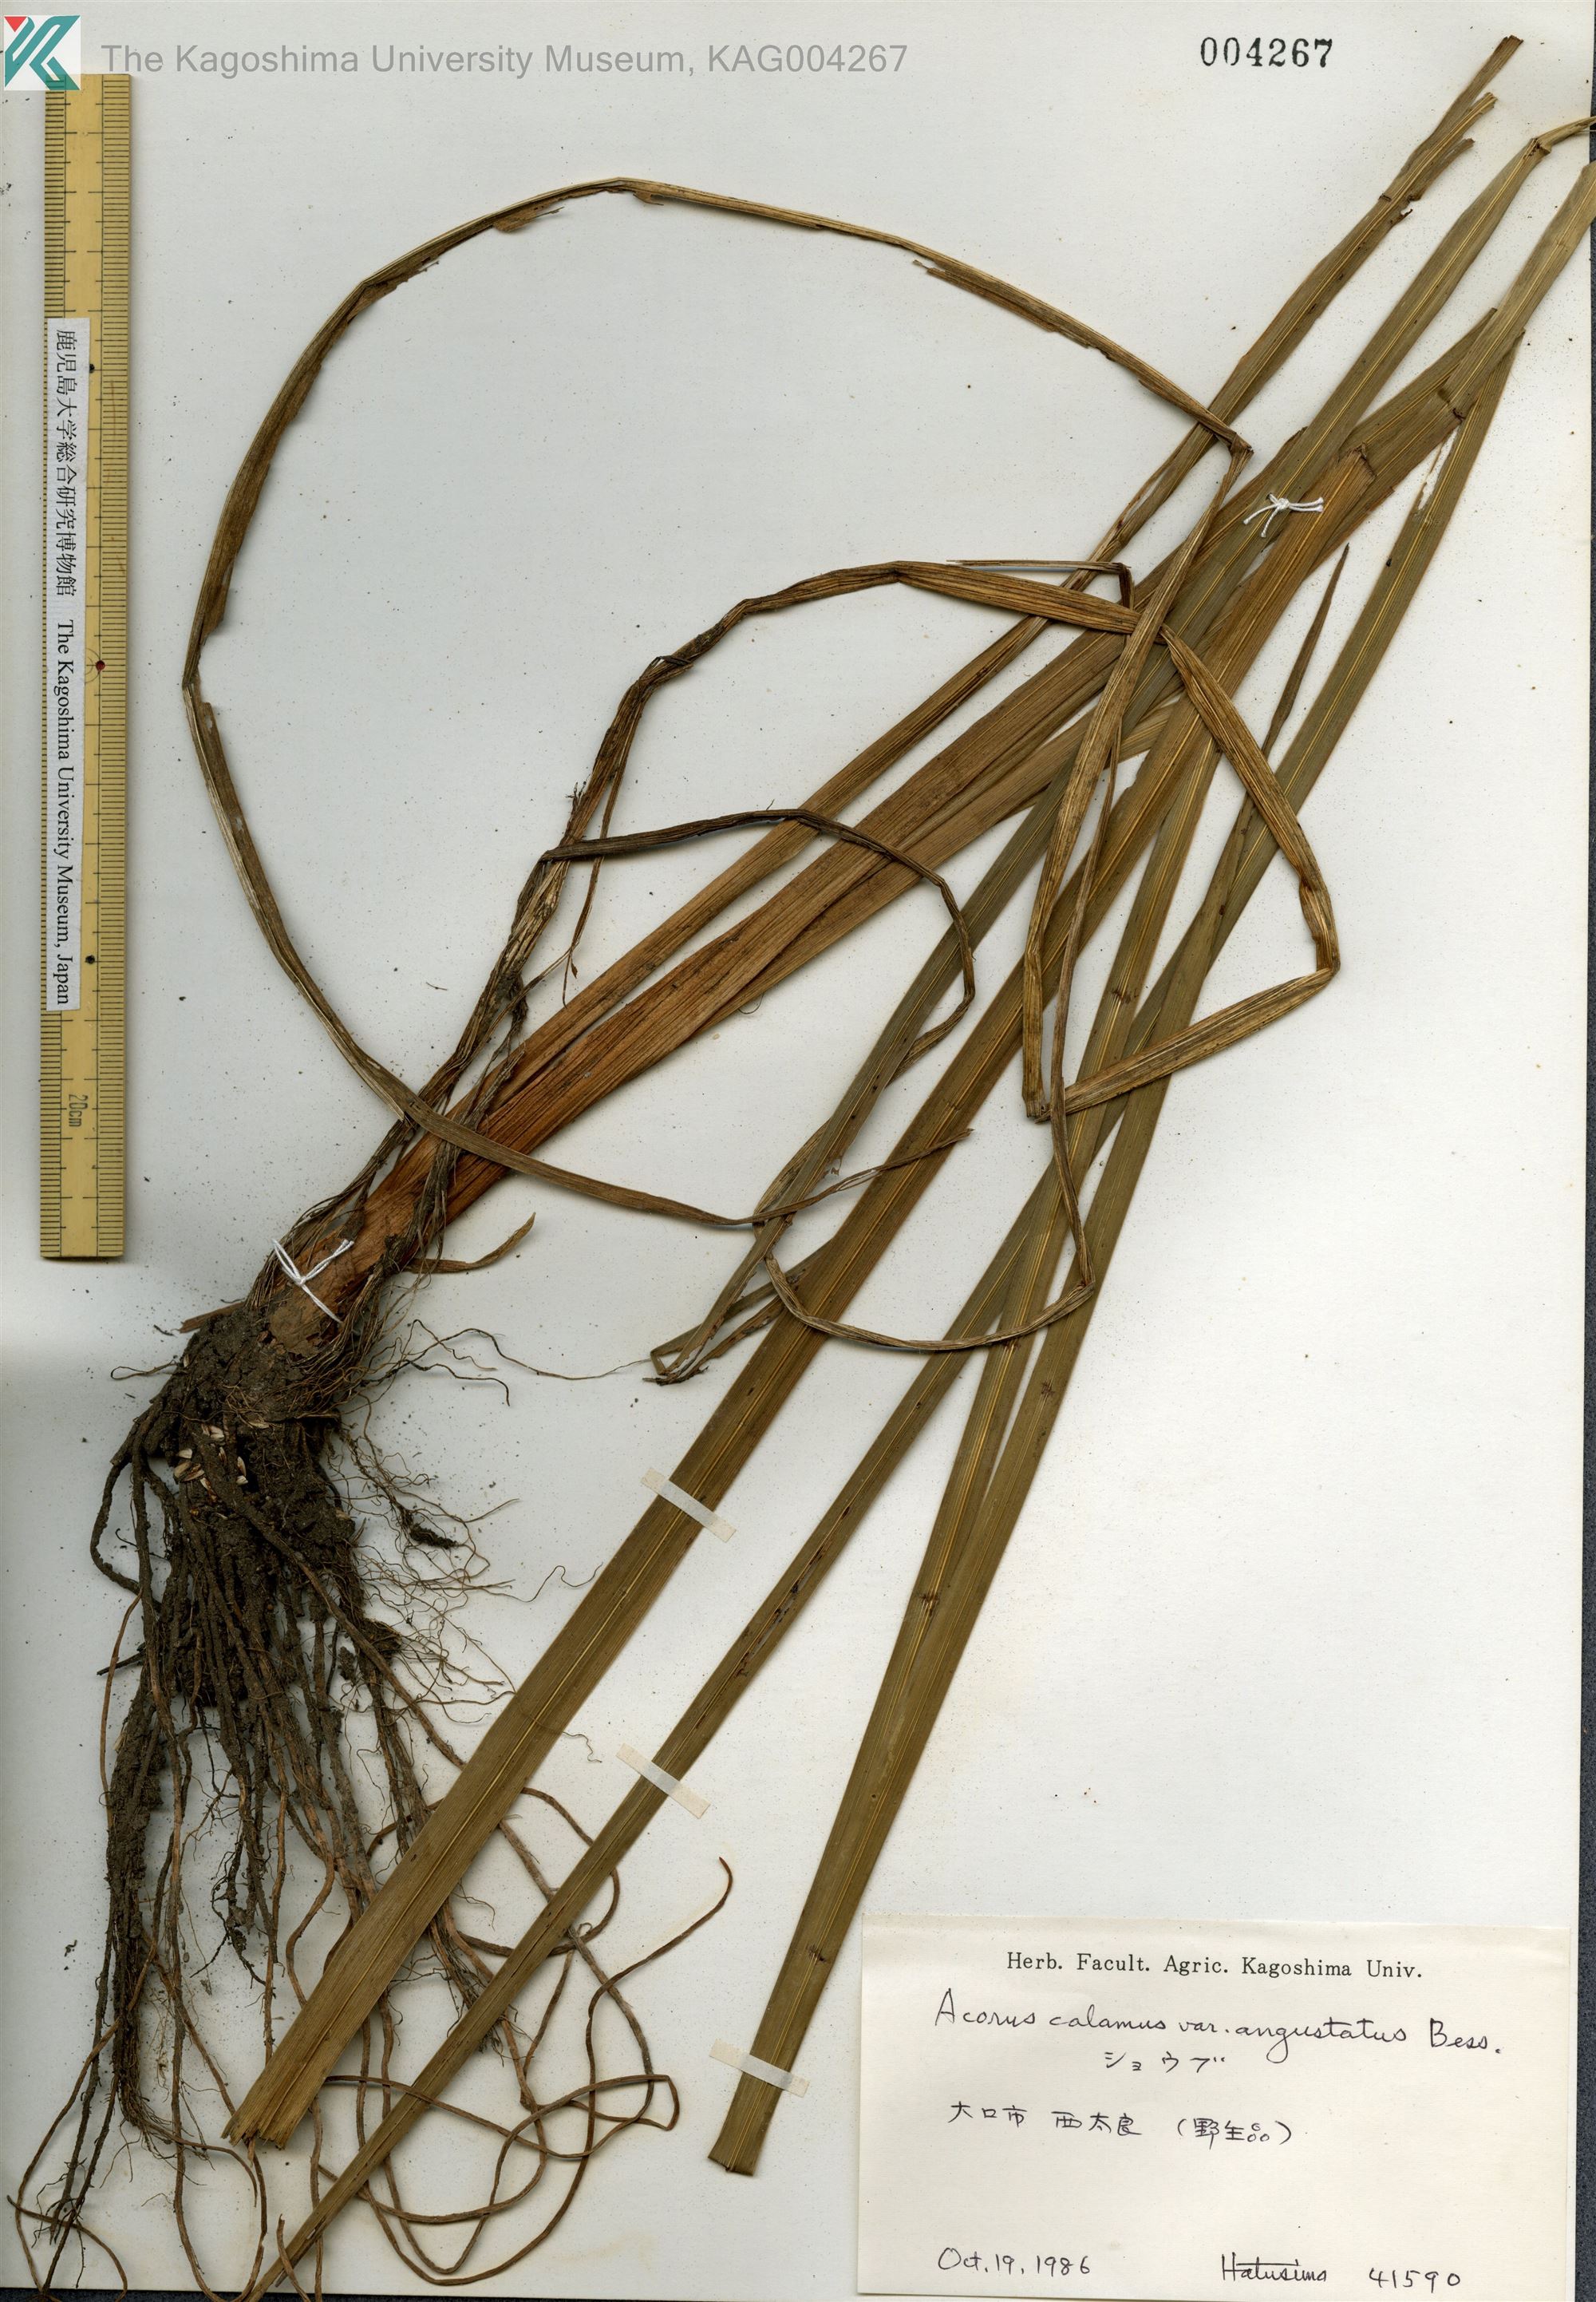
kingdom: Plantae
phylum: Tracheophyta
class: Liliopsida
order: Acorales
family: Acoraceae
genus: Acorus
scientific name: Acorus calamus
